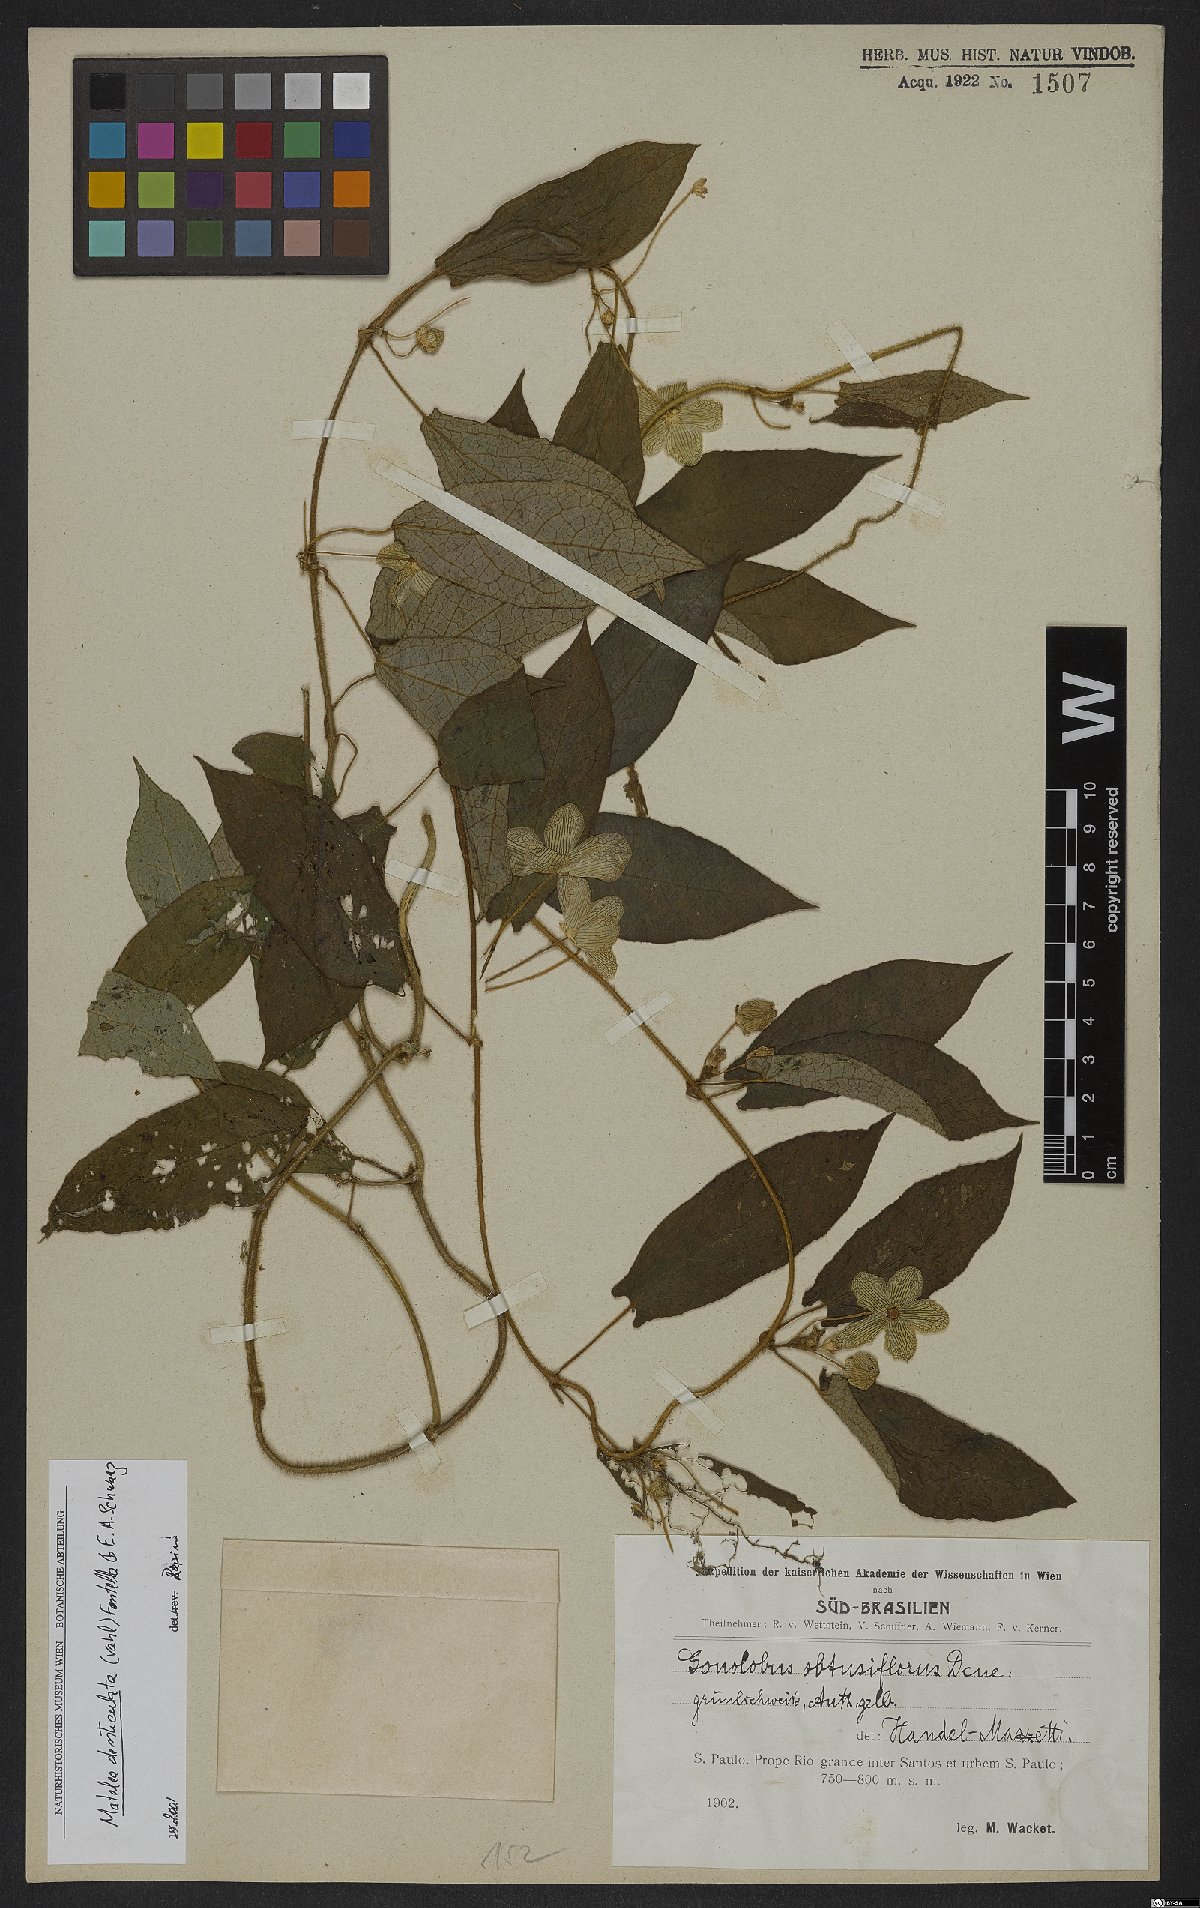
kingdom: Plantae
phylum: Tracheophyta
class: Magnoliopsida
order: Gentianales
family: Apocynaceae
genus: Chloropetalum
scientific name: Chloropetalum denticulatum
